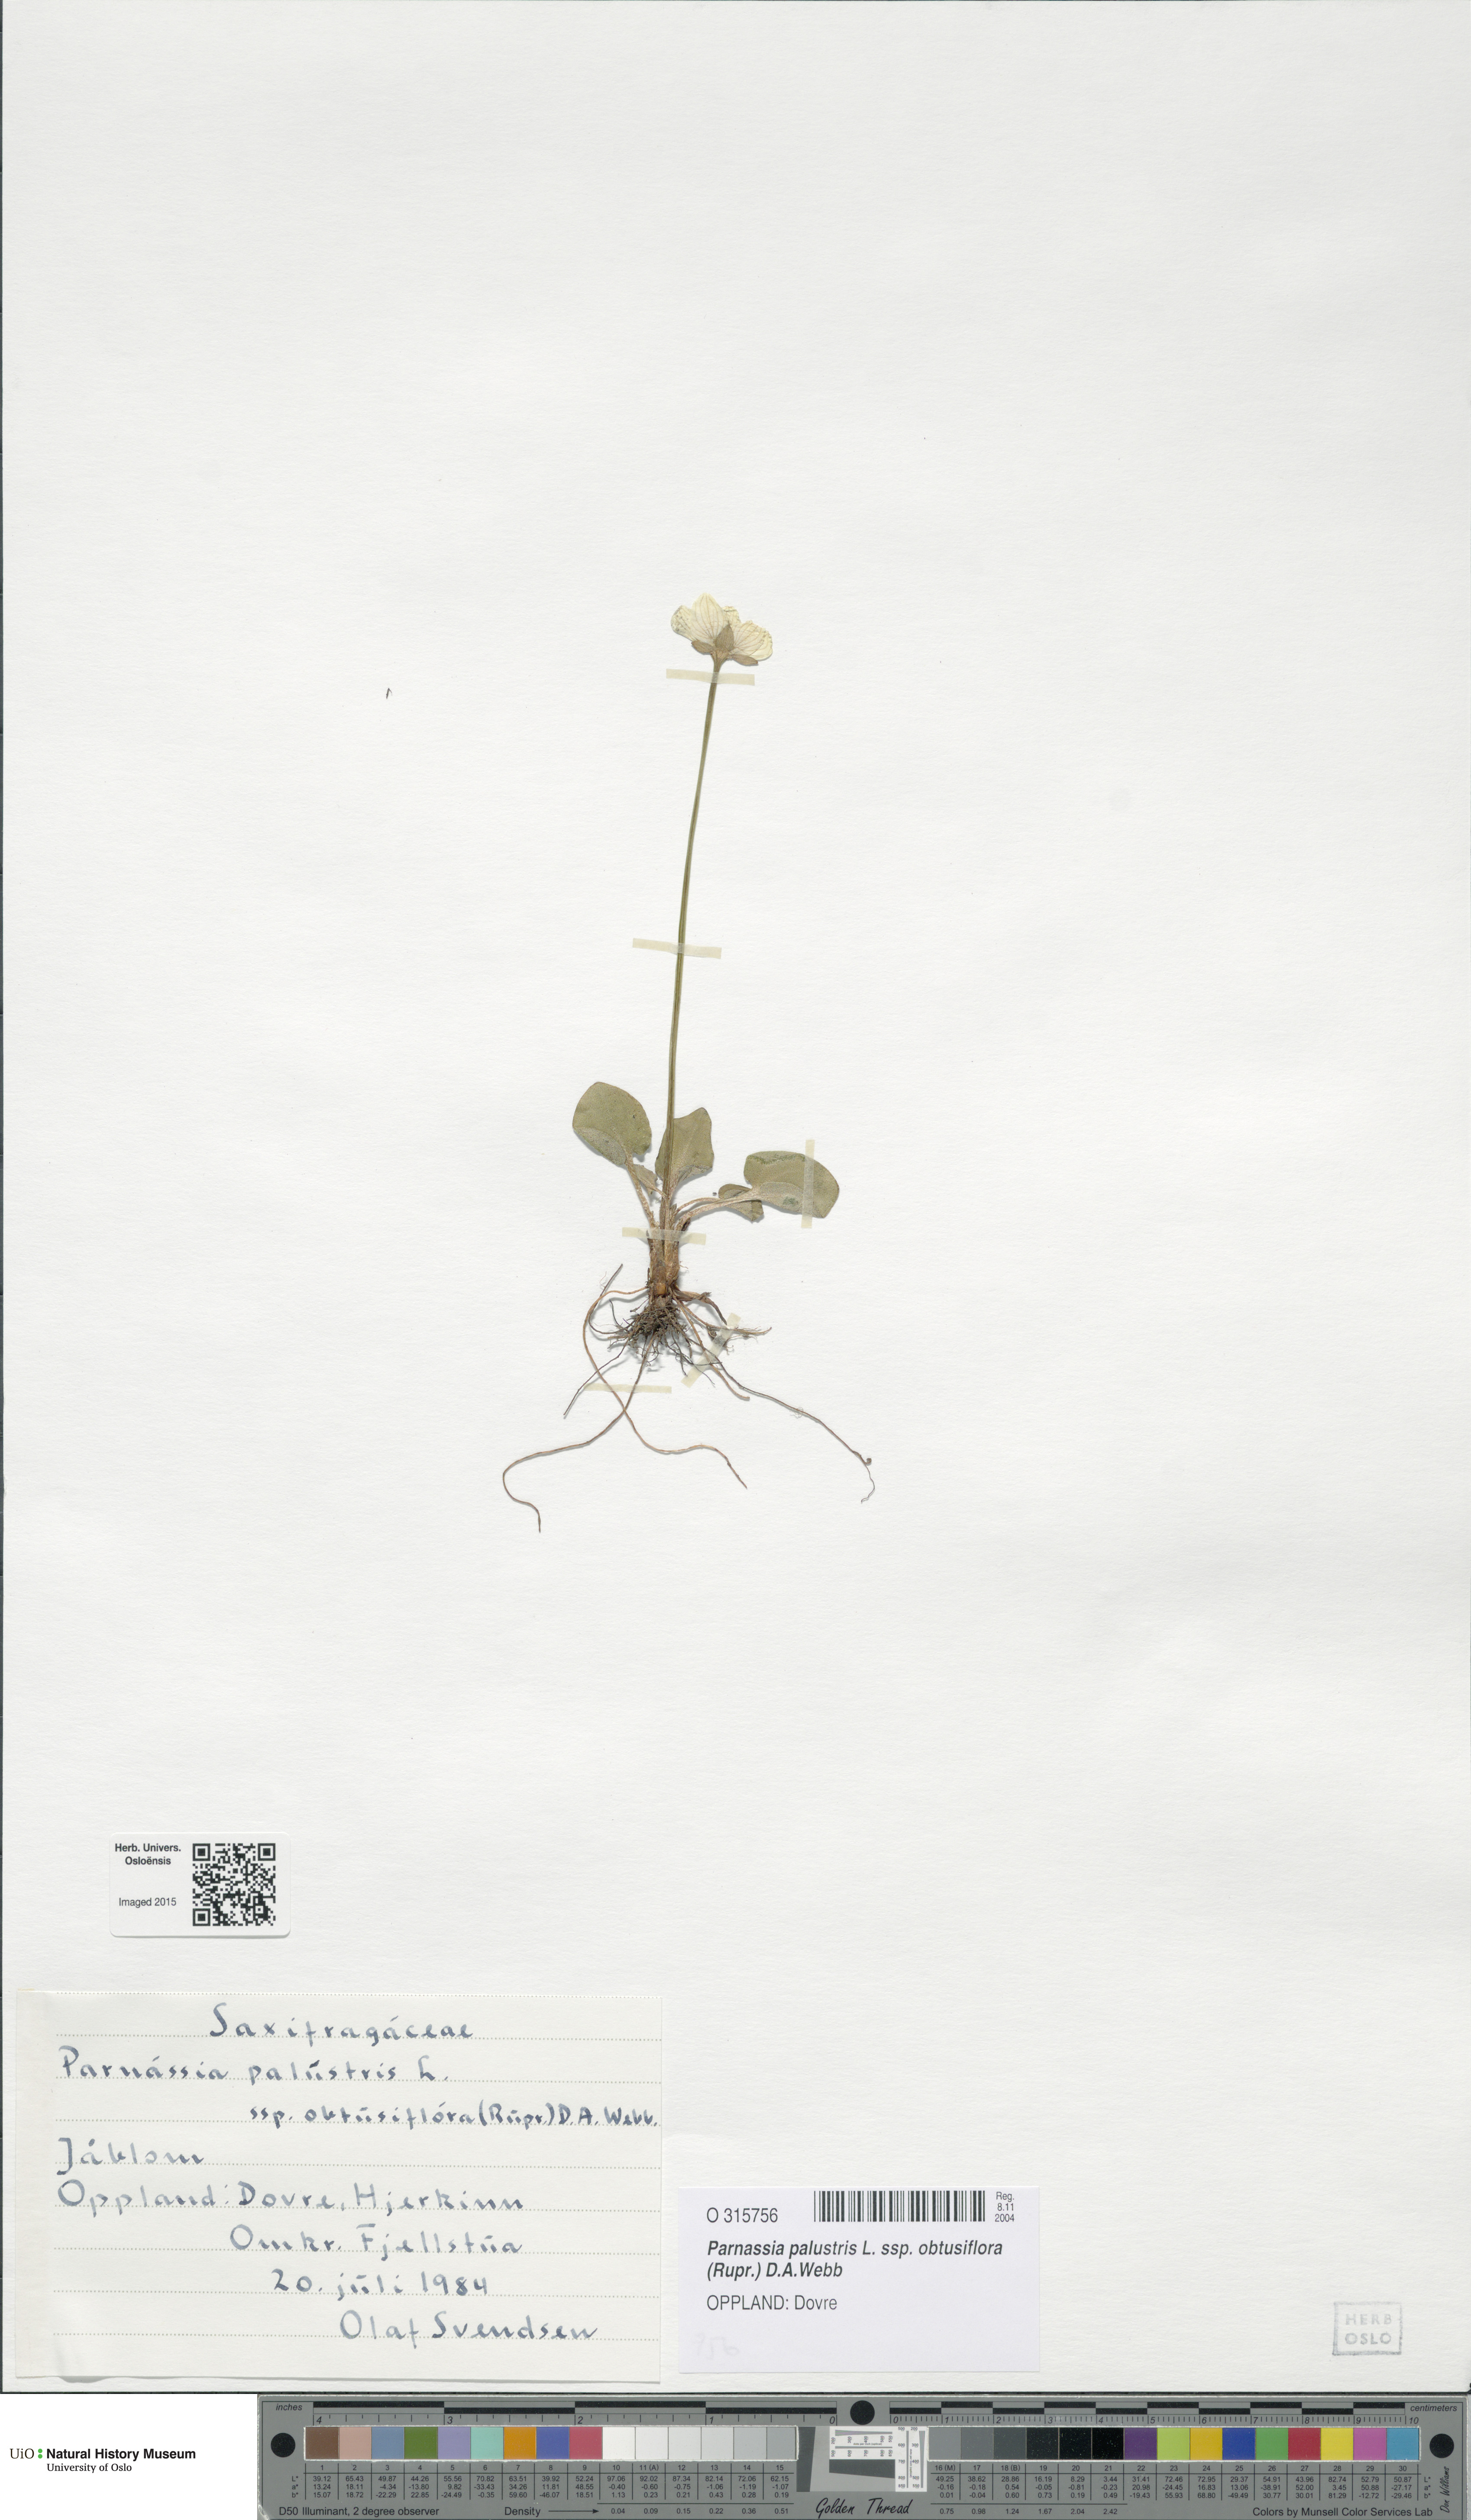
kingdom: Plantae
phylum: Tracheophyta
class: Magnoliopsida
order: Celastrales
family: Parnassiaceae
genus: Parnassia
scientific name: Parnassia palustris
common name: Grass-of-parnassus
